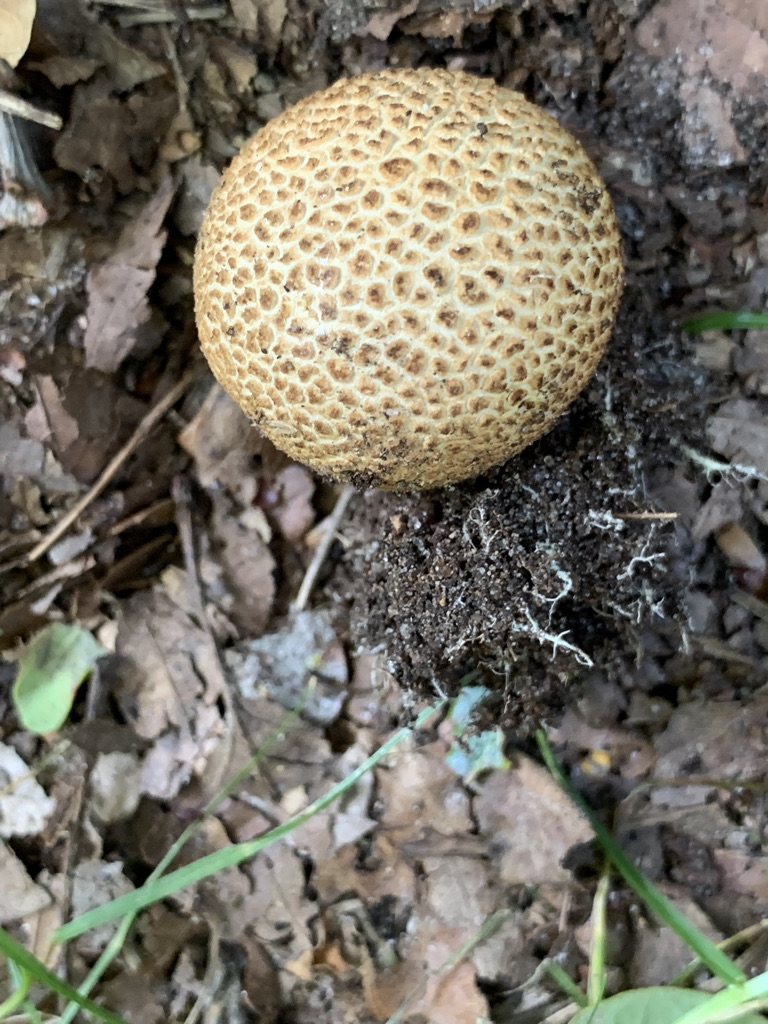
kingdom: Fungi
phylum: Basidiomycota
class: Agaricomycetes
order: Boletales
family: Sclerodermataceae
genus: Scleroderma
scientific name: Scleroderma areolatum
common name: plettet bruskbold
